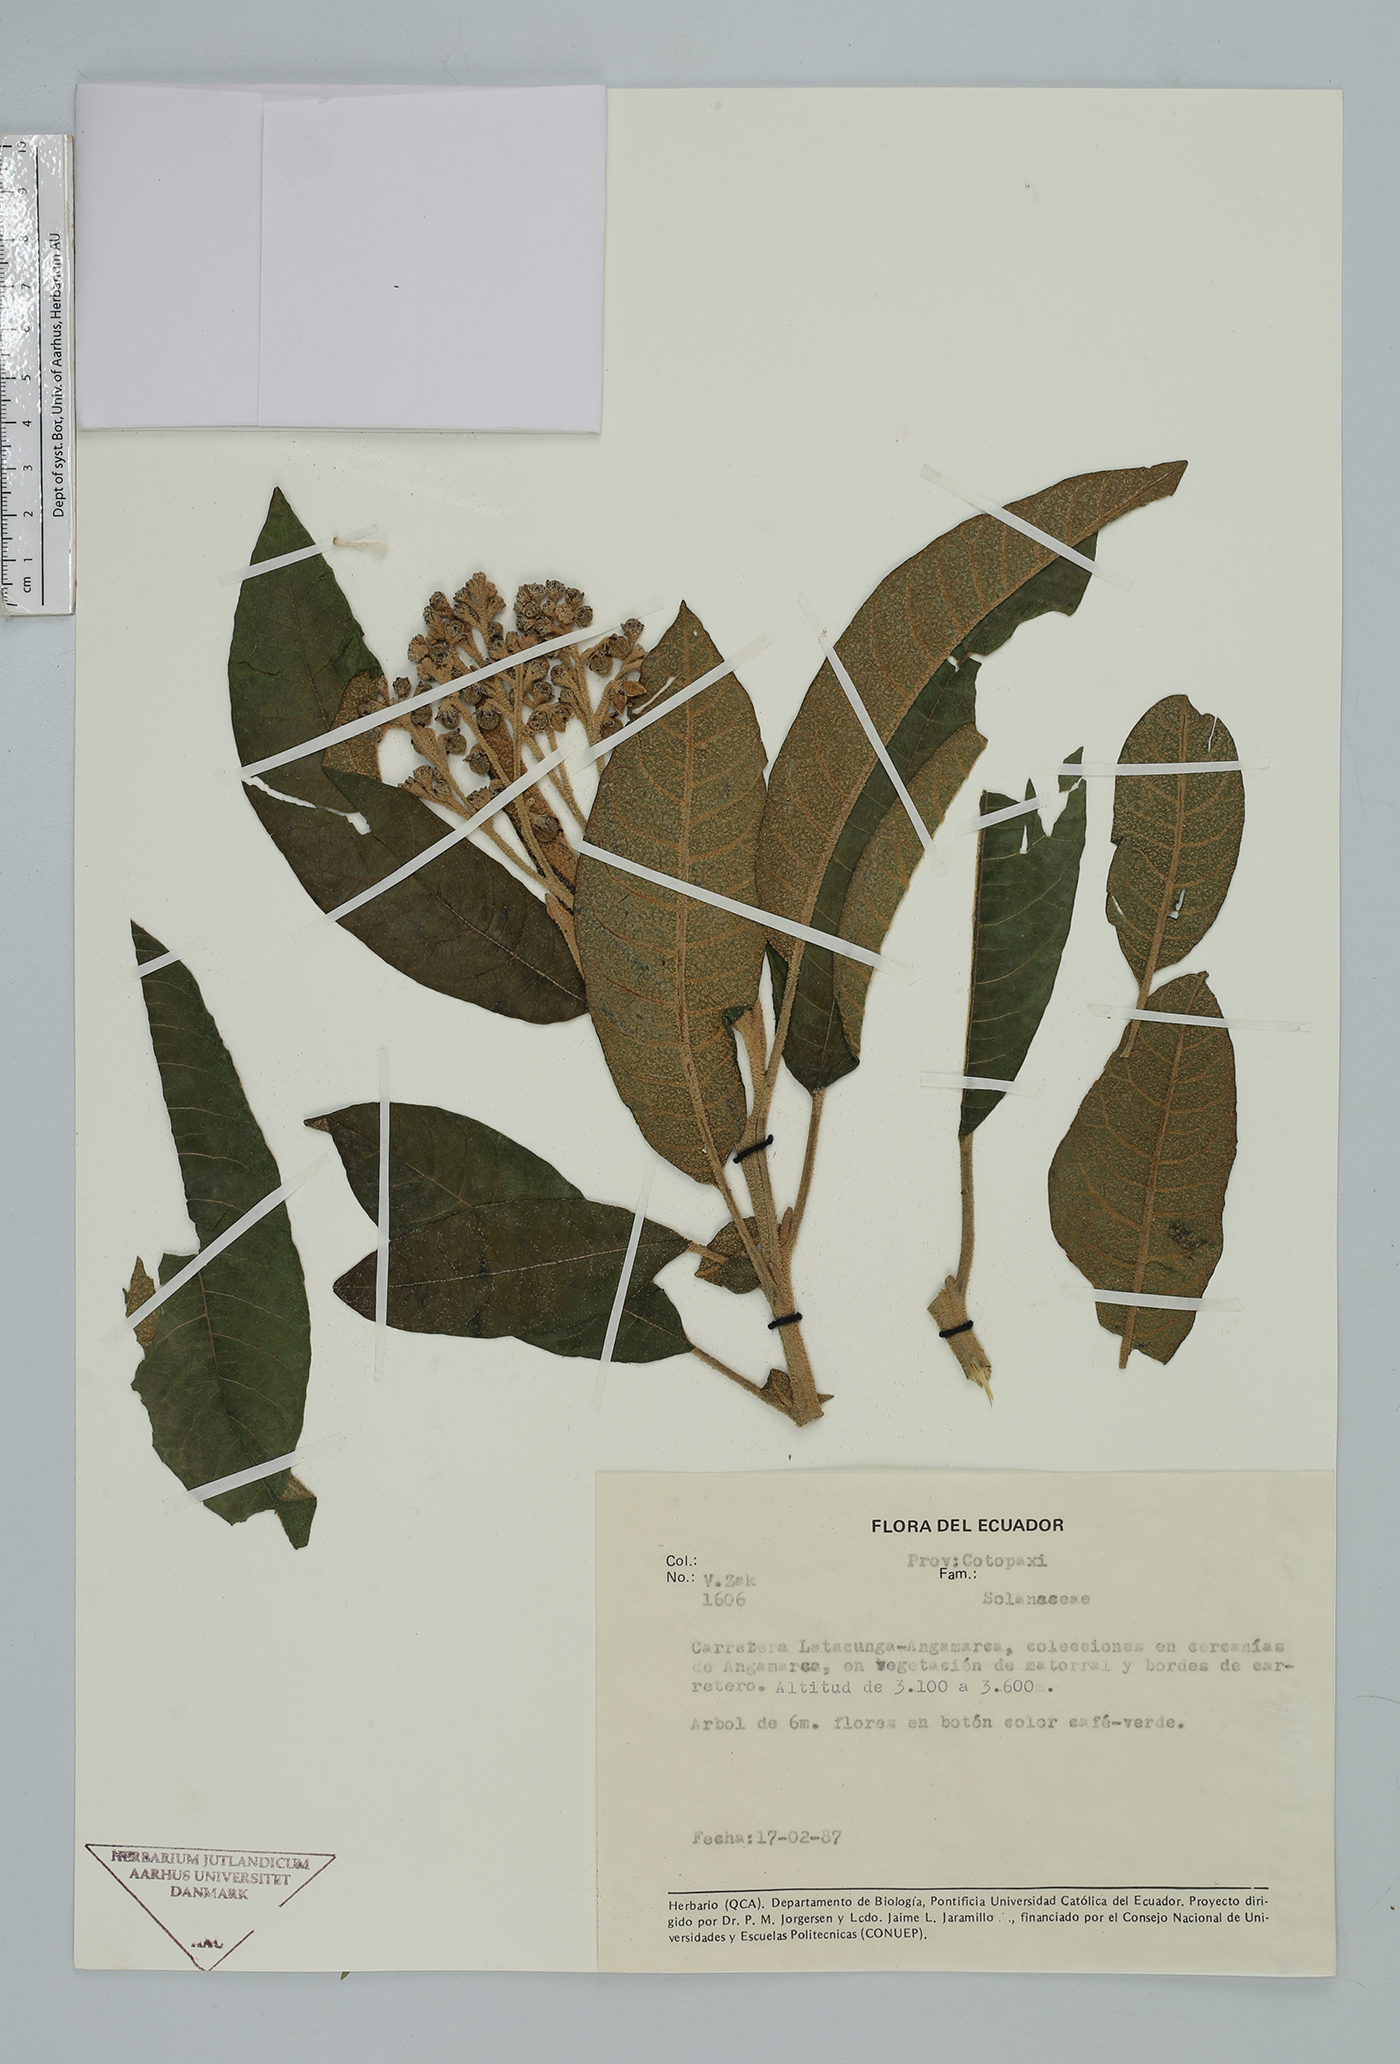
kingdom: Plantae
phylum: Tracheophyta
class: Magnoliopsida
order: Solanales
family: Solanaceae
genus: Solanum
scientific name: Solanum
